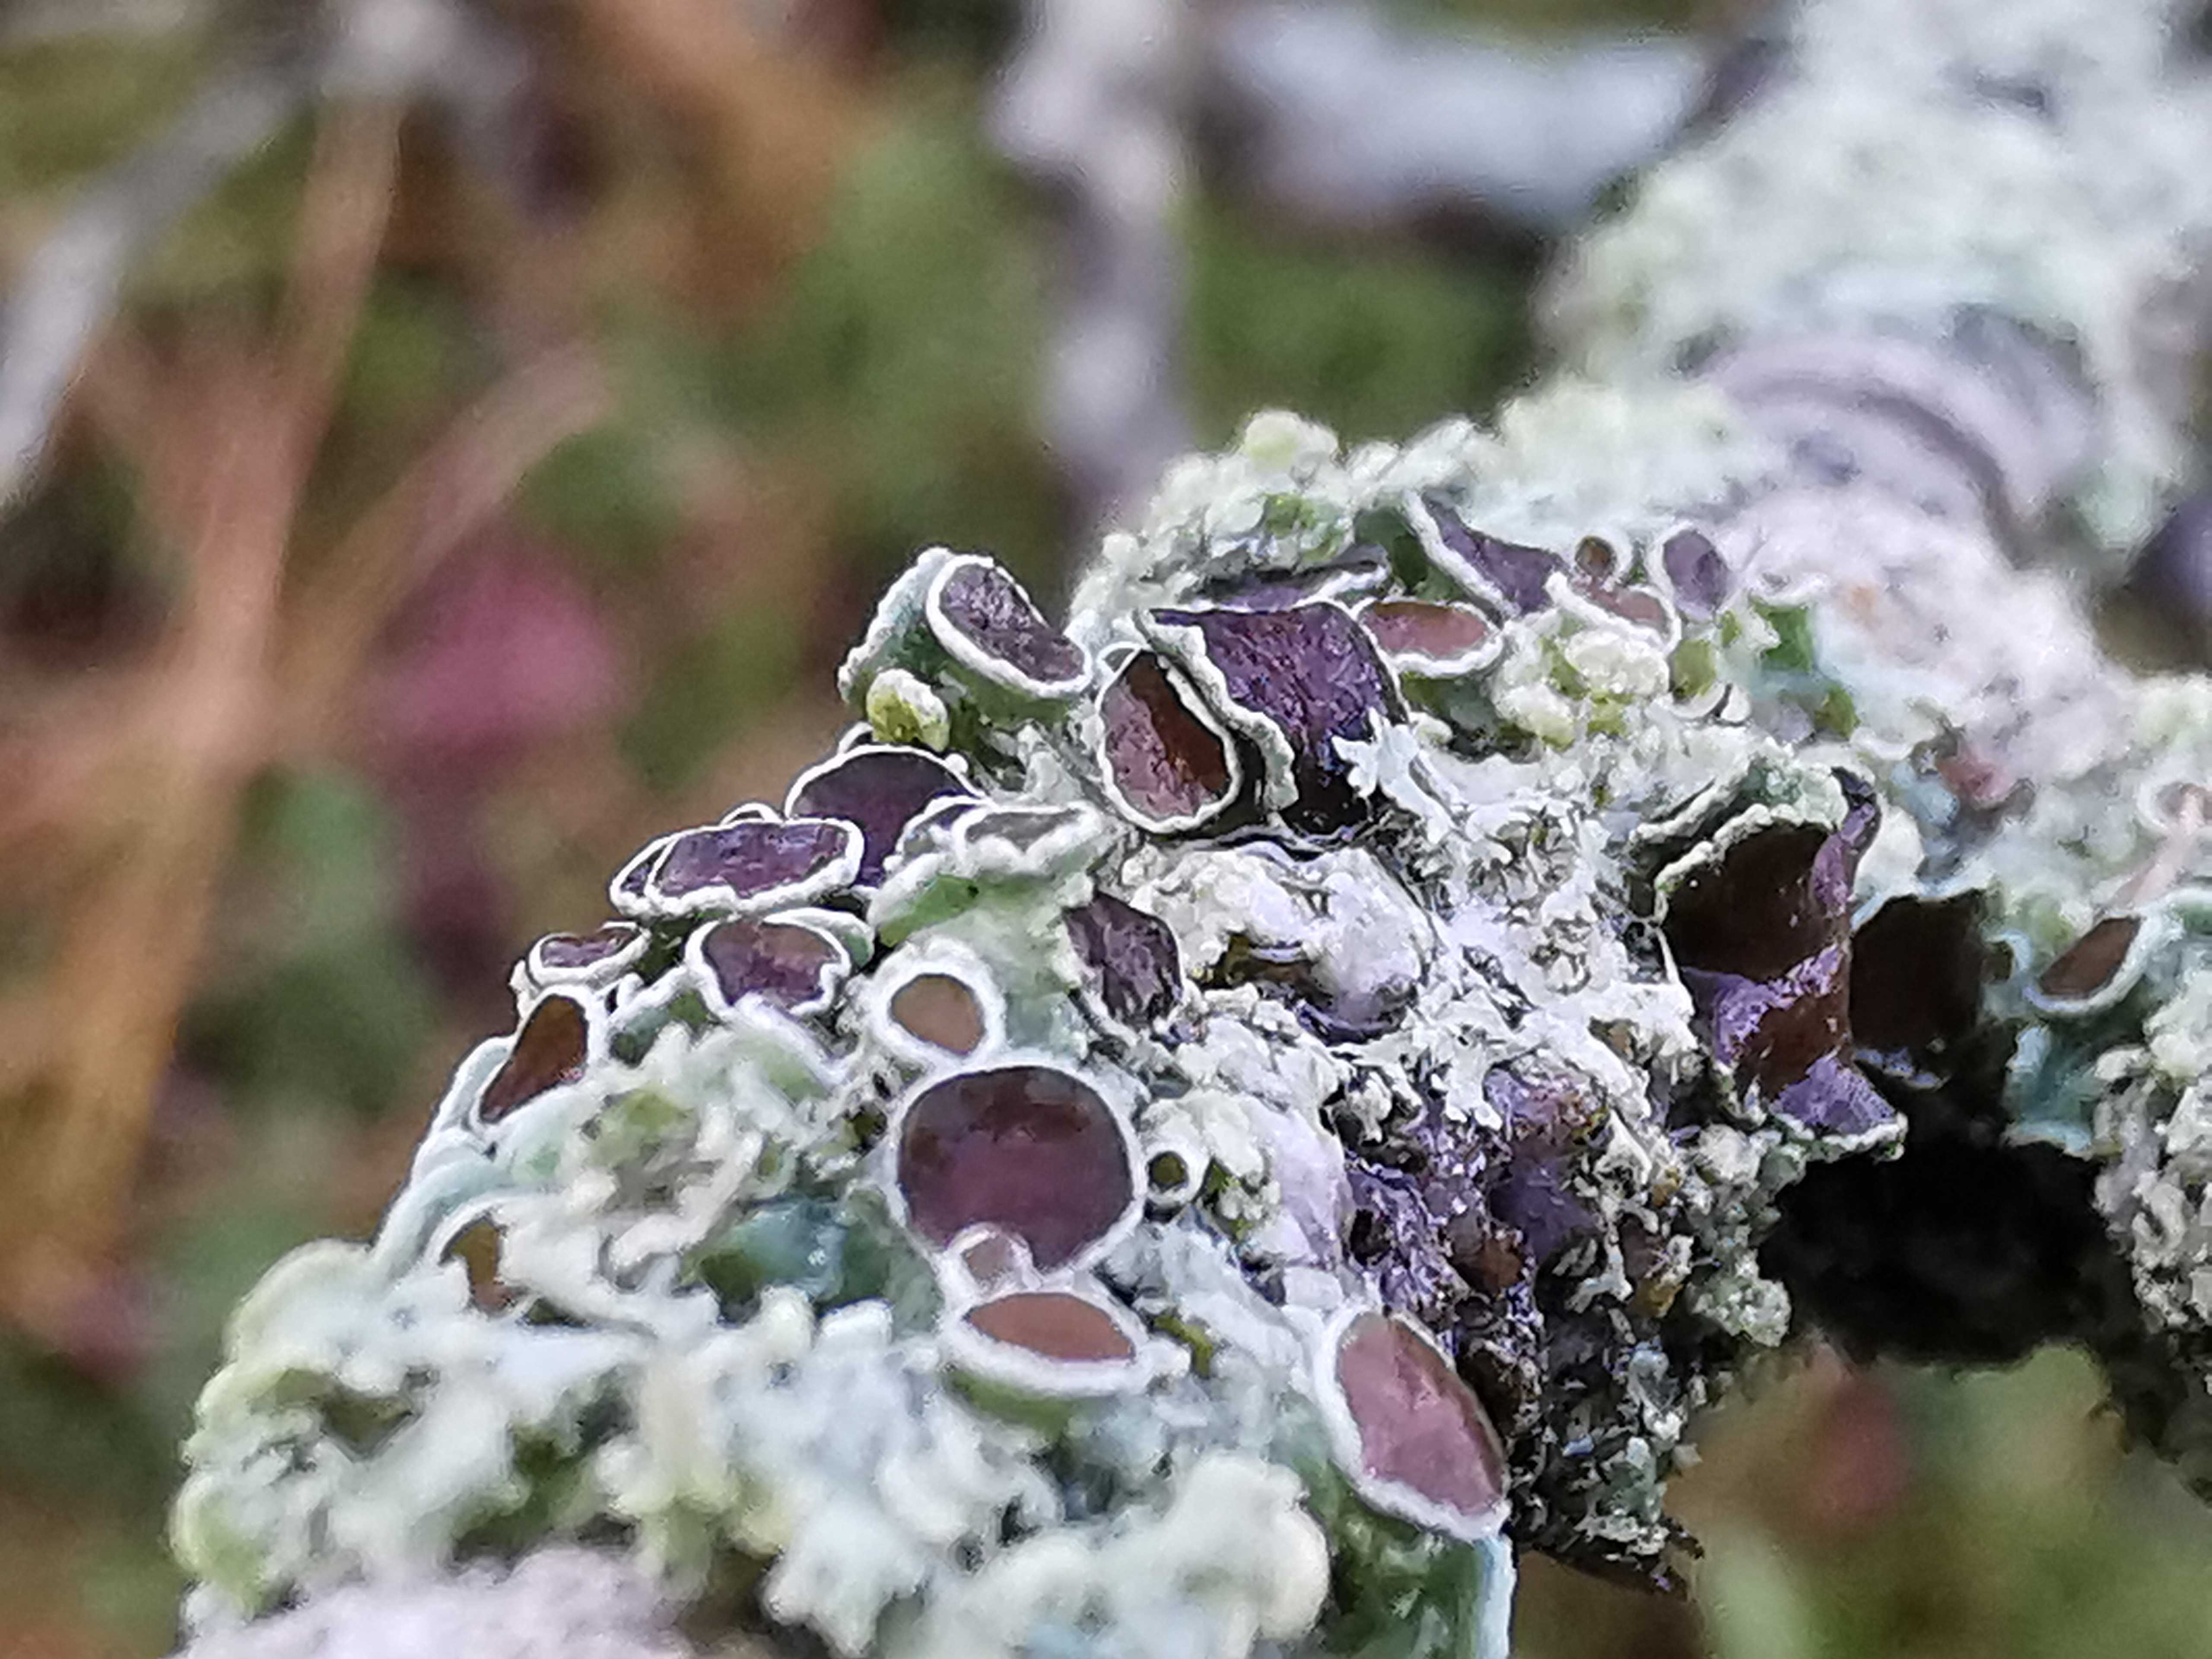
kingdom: Fungi
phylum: Ascomycota
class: Lecanoromycetes
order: Caliciales
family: Physciaceae
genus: Physcia
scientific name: Physcia tenella
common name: spæd rosetlav
